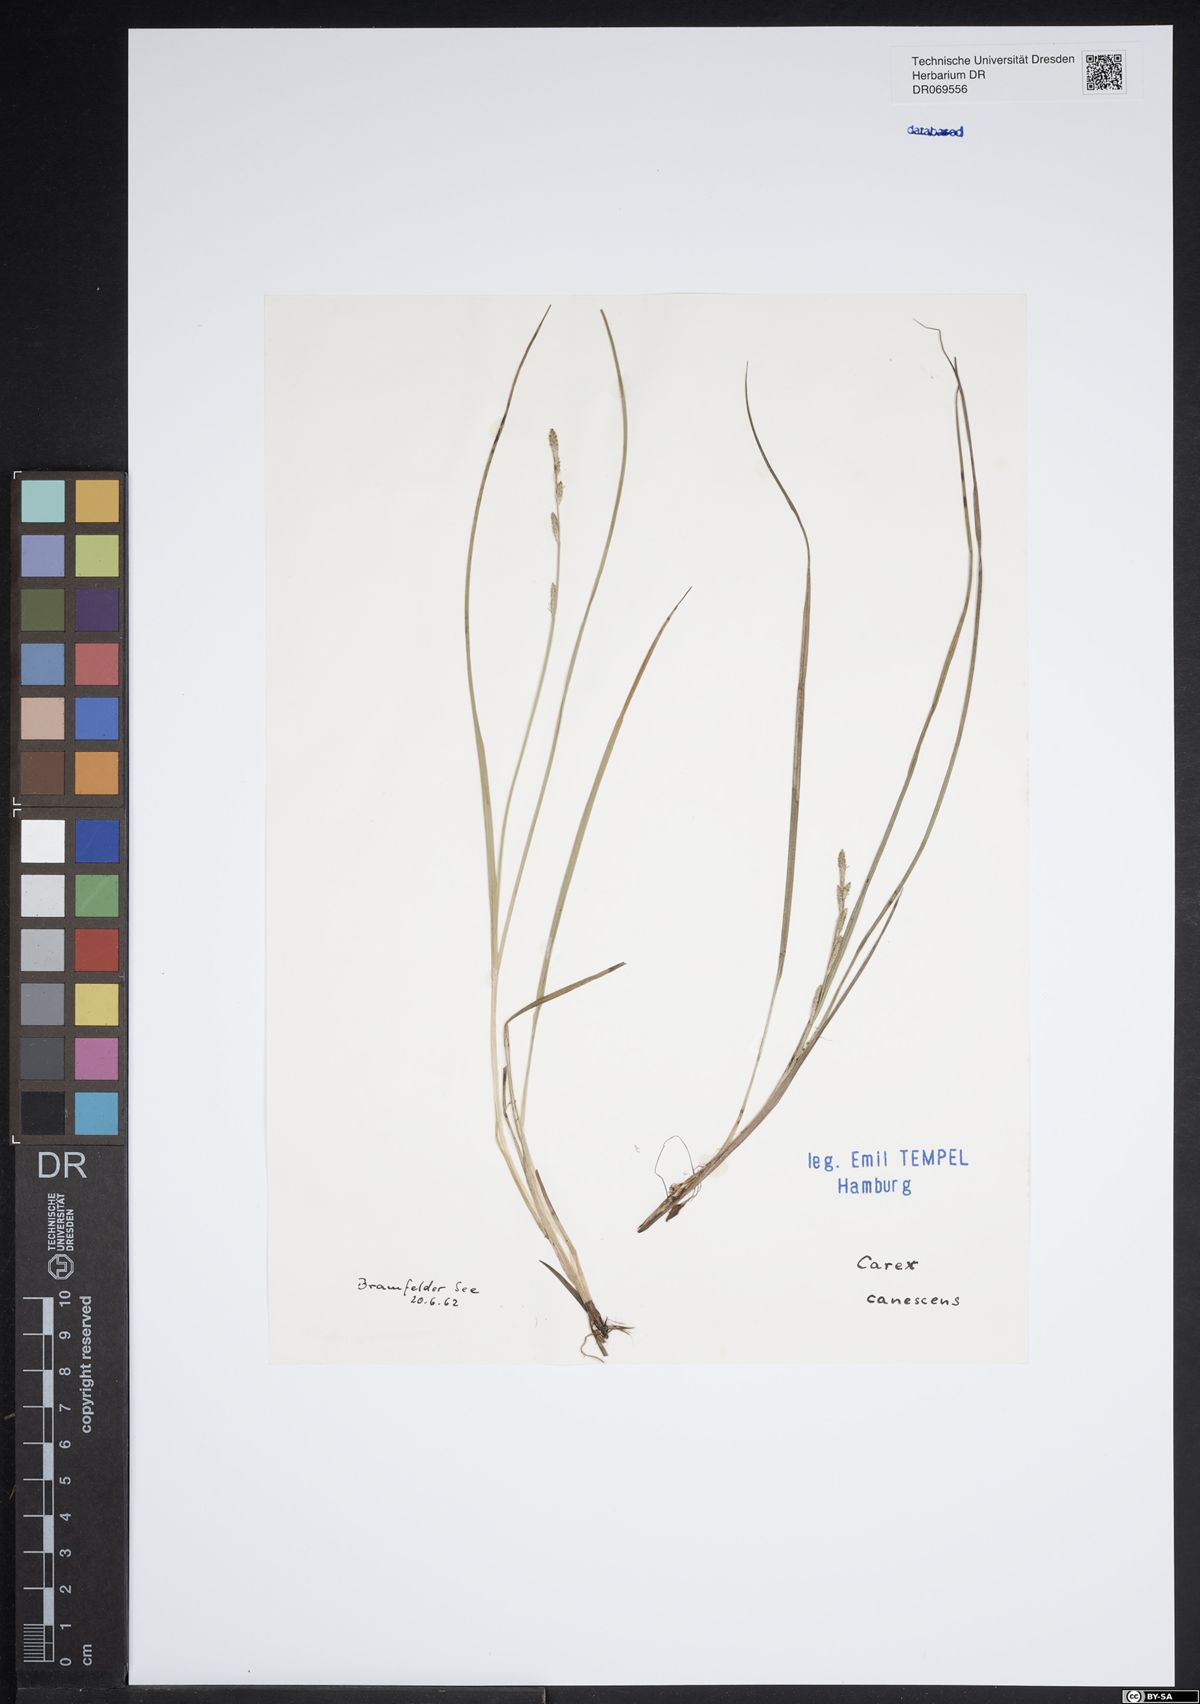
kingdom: Plantae
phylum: Tracheophyta
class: Liliopsida
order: Poales
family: Cyperaceae
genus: Carex
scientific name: Carex canescens
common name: White sedge
